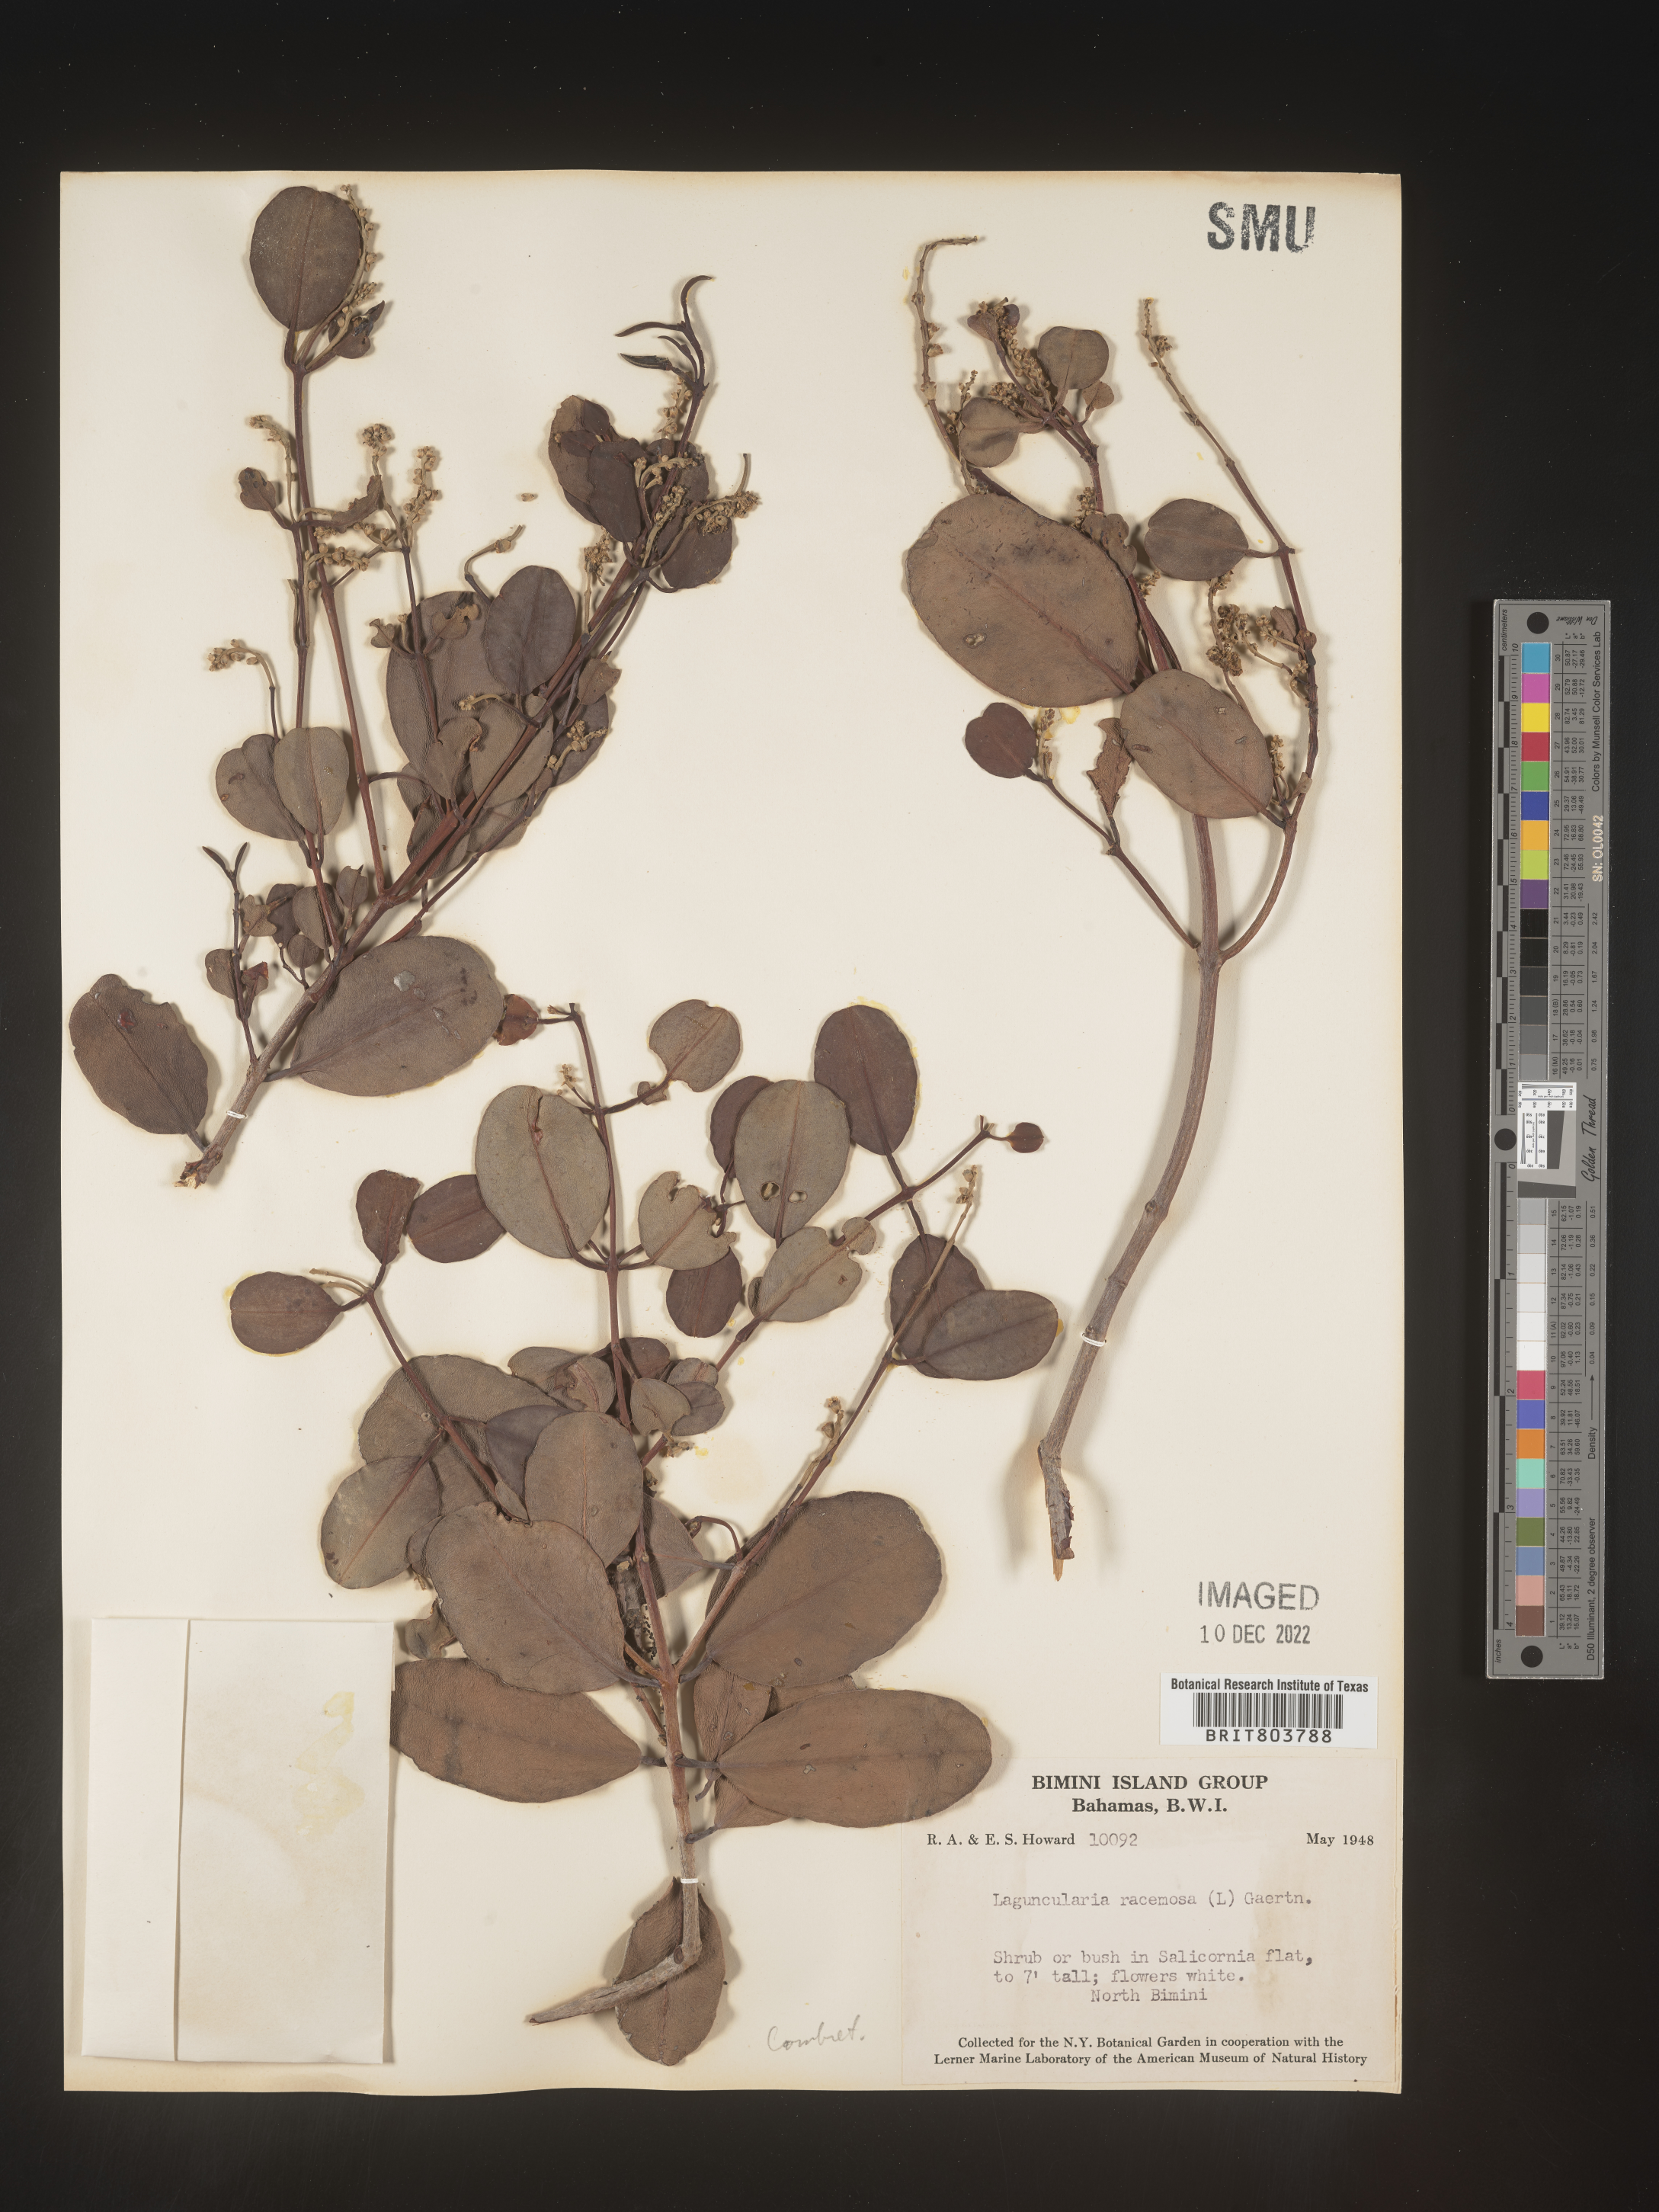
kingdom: Plantae
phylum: Tracheophyta
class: Magnoliopsida
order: Myrtales
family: Combretaceae
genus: Laguncularia
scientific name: Laguncularia
